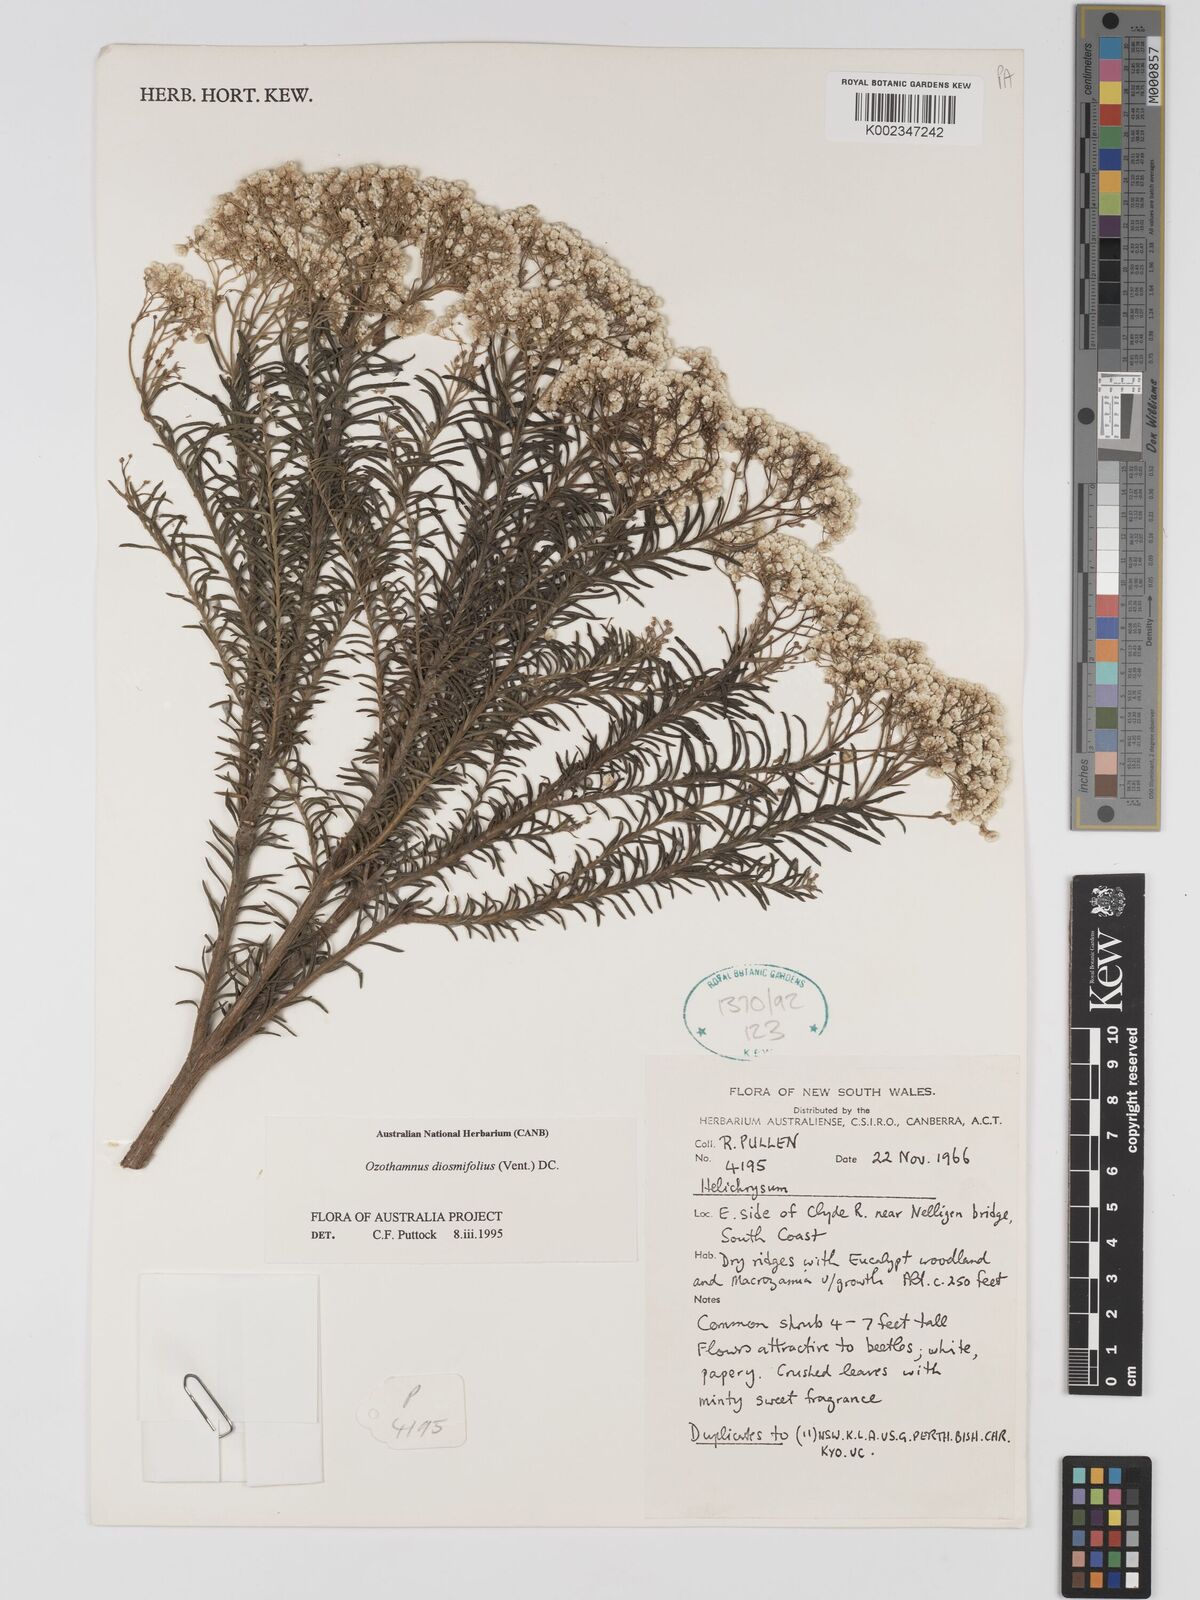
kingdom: Plantae
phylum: Tracheophyta
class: Magnoliopsida
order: Asterales
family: Asteraceae
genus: Ozothamnus
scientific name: Ozothamnus diosmifolius
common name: White-dogwood
